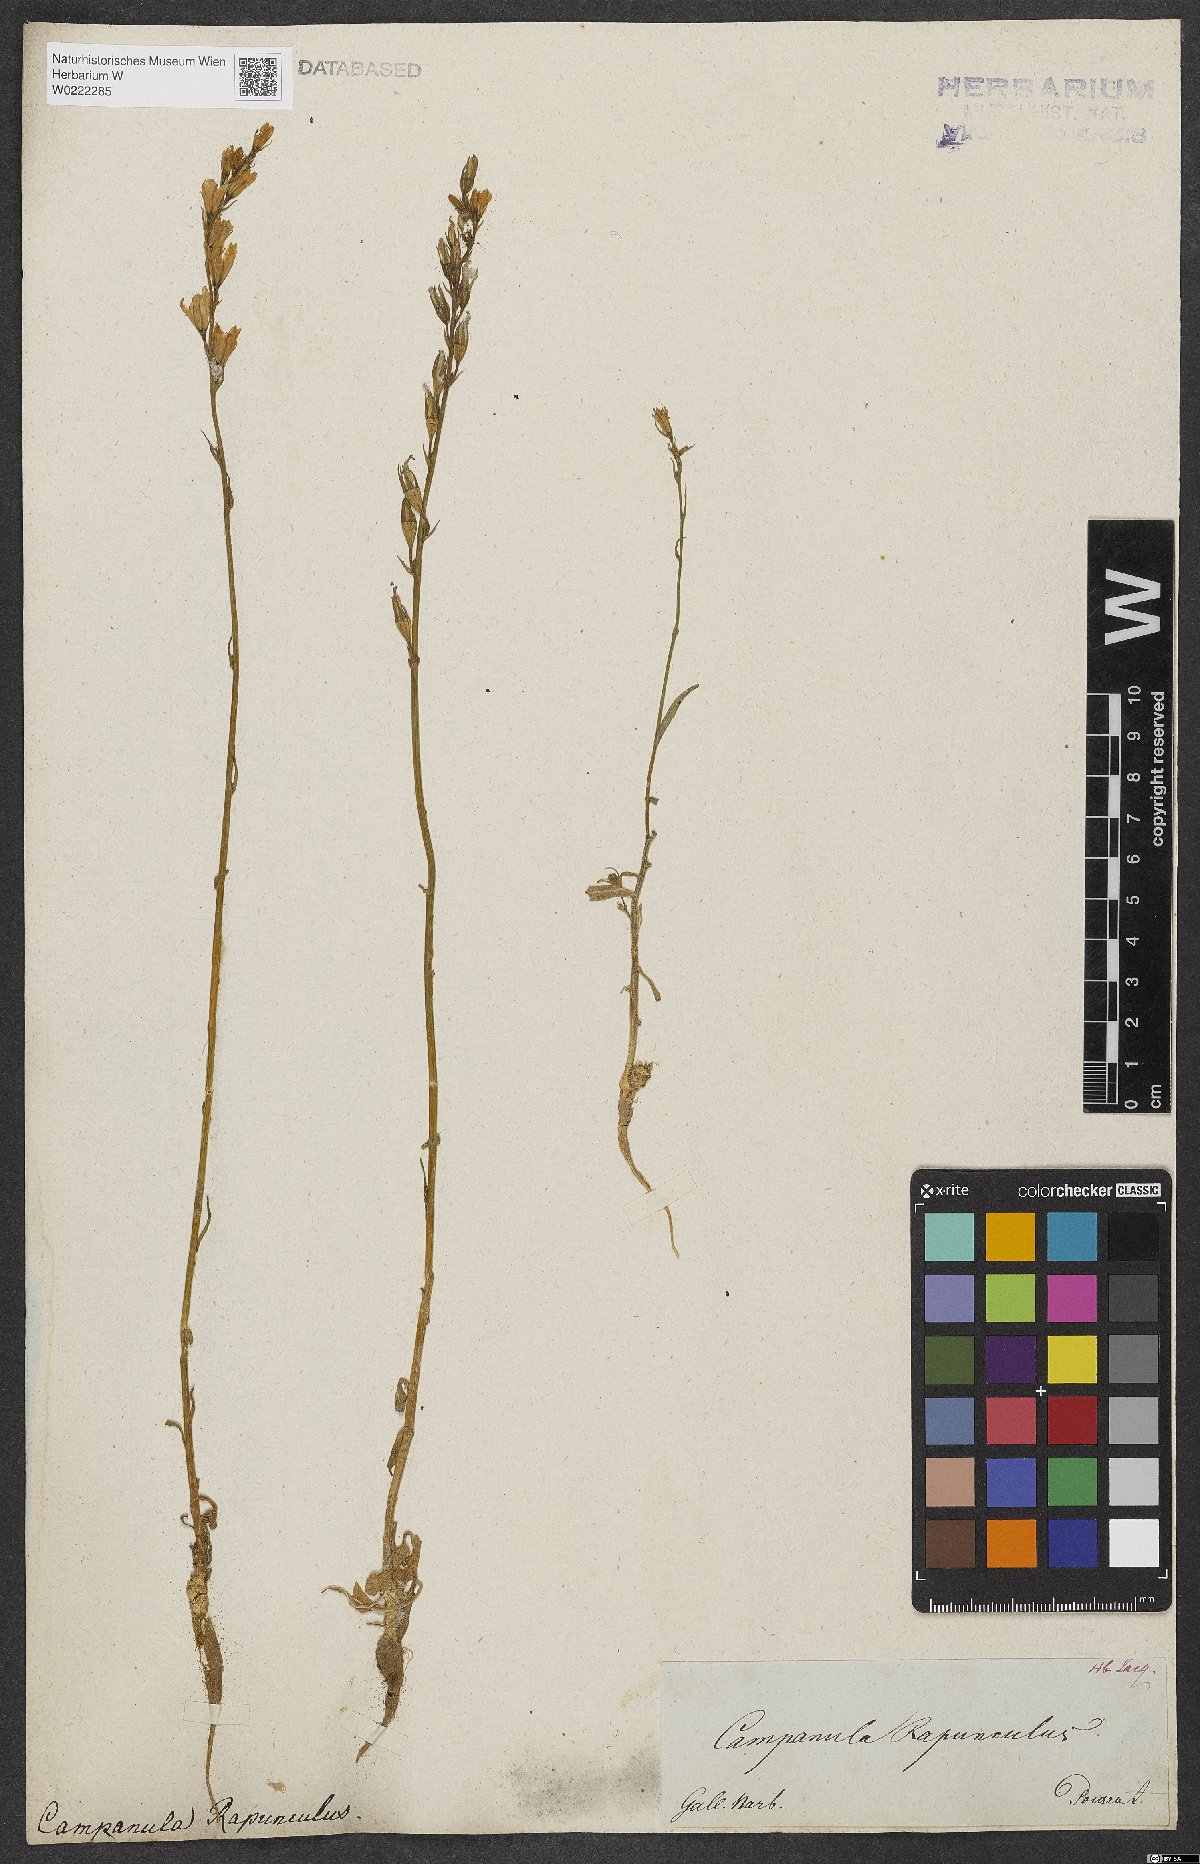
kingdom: Plantae
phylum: Tracheophyta
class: Magnoliopsida
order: Asterales
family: Campanulaceae
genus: Campanula
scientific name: Campanula rapunculus
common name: Rampion bellflower
